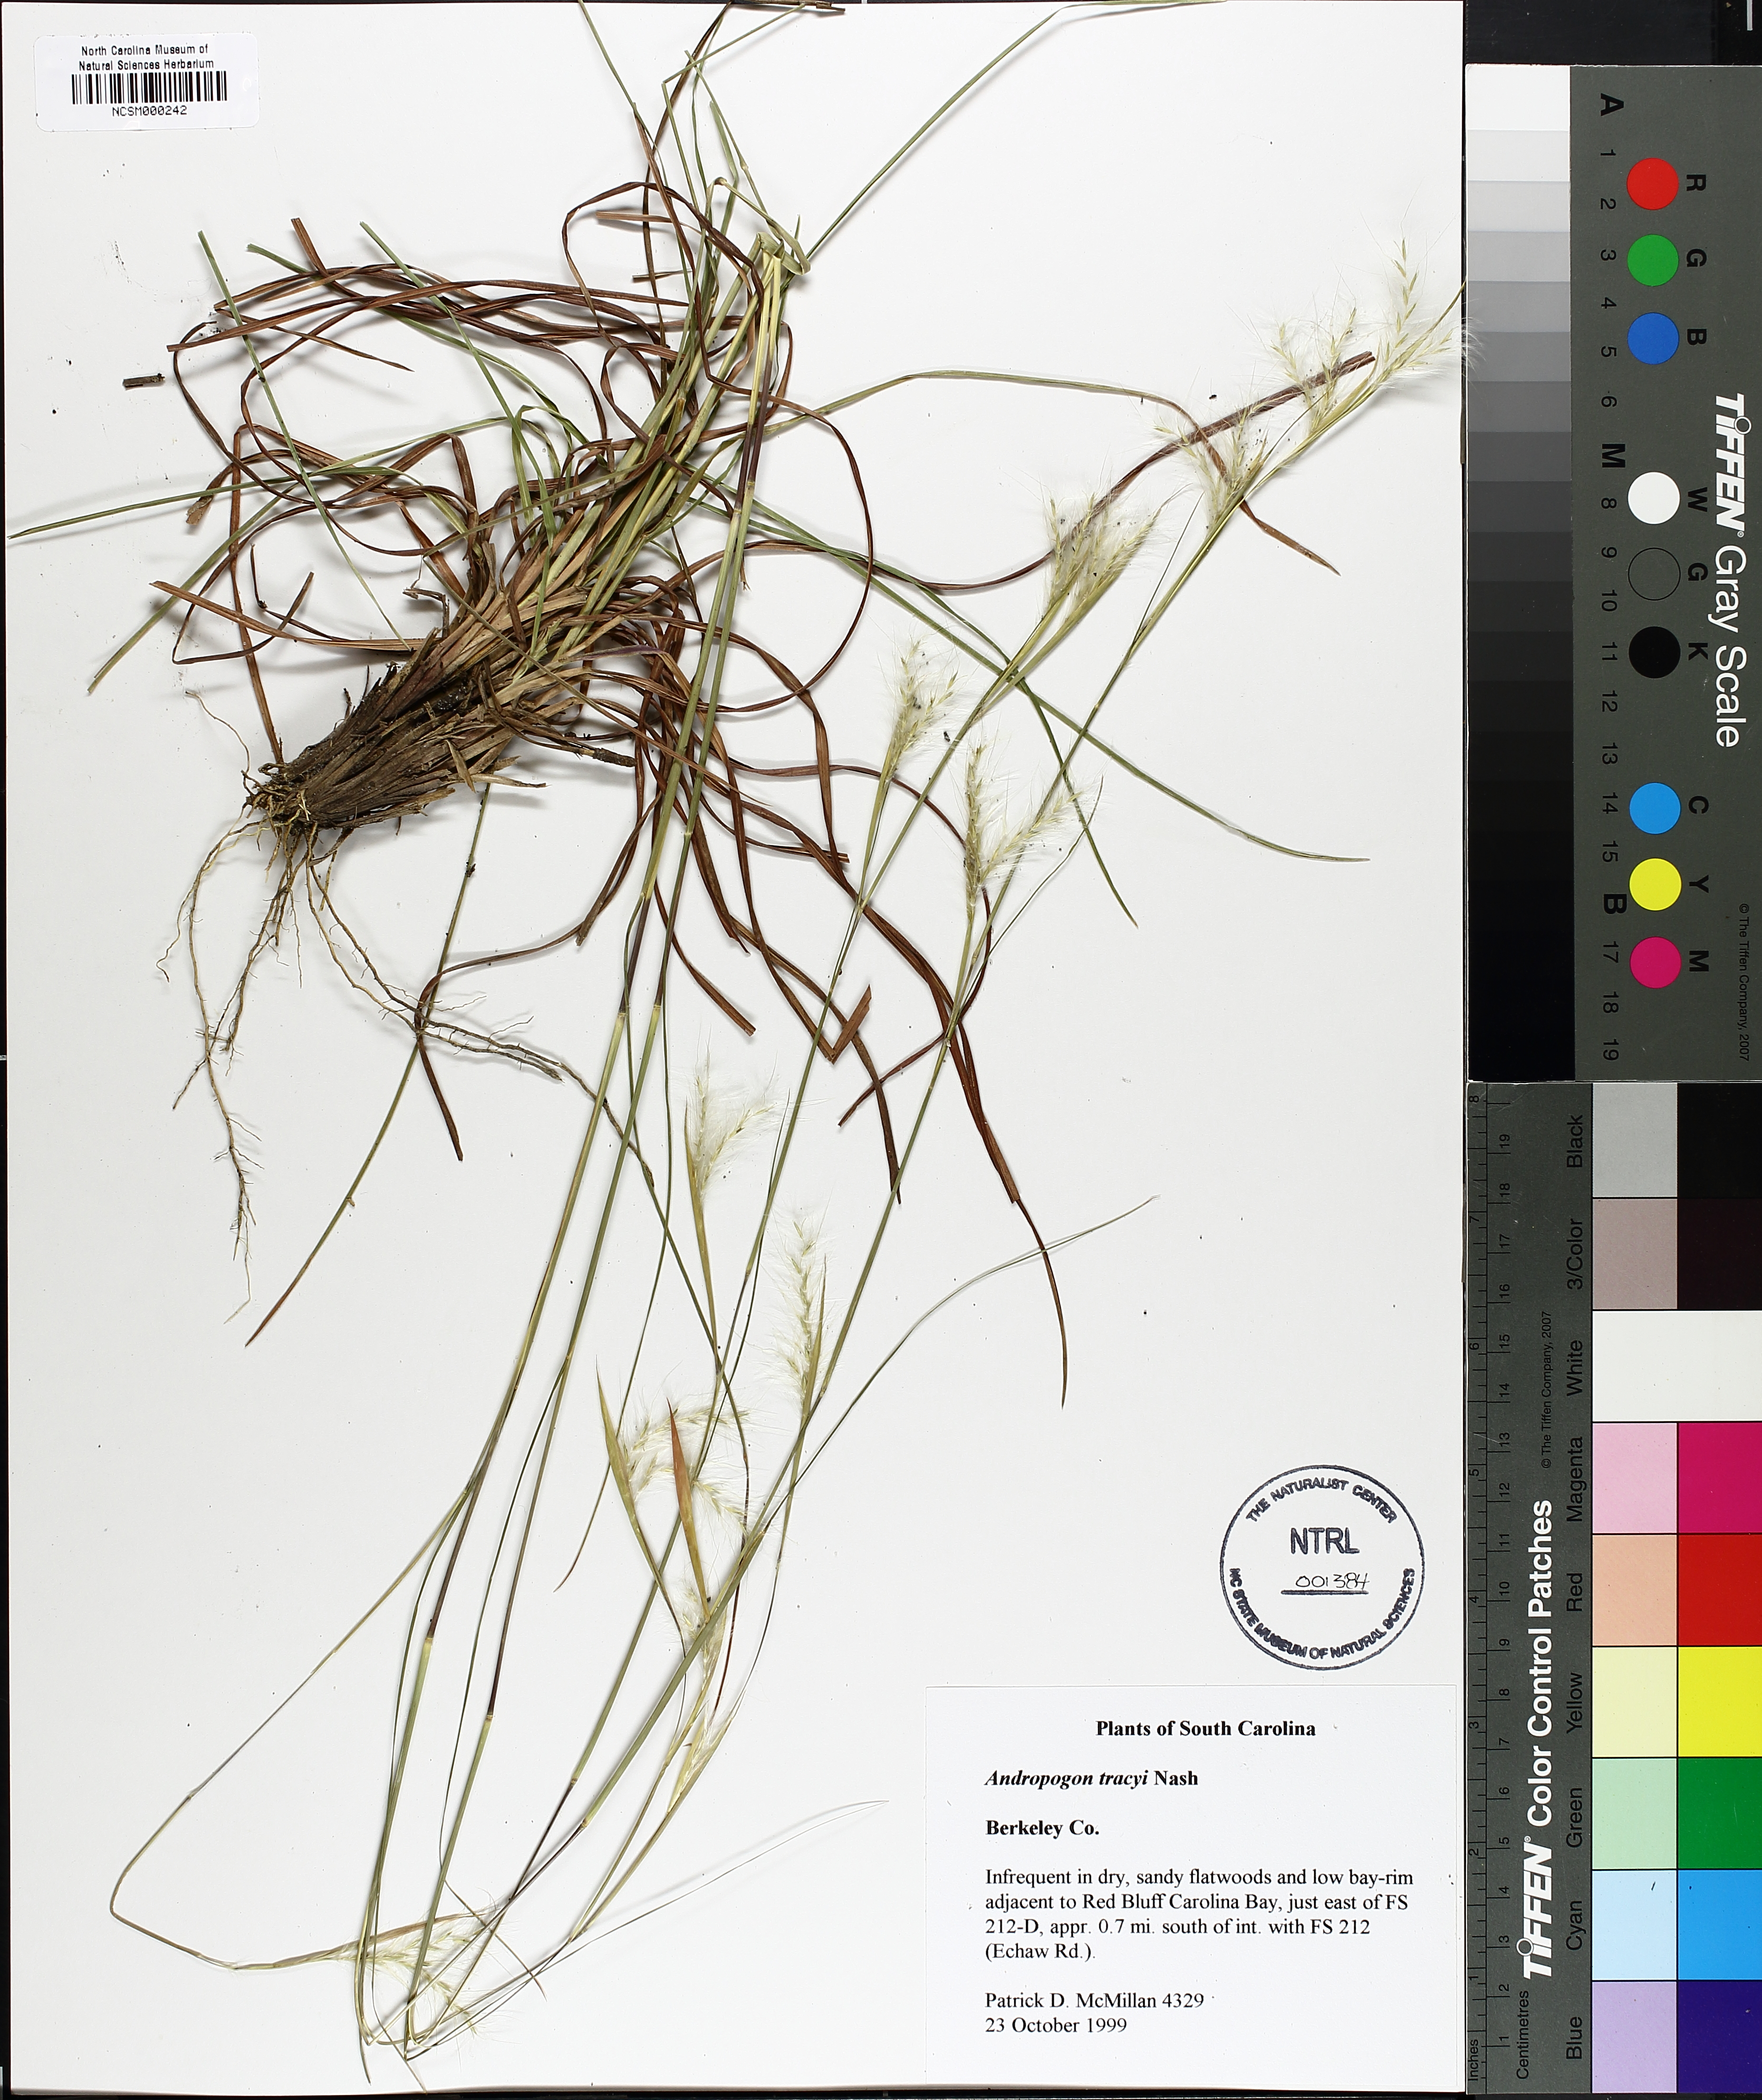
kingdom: Plantae
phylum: Tracheophyta
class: Liliopsida
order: Poales
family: Poaceae
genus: Andropogon
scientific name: Andropogon tracyi
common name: Tracy's bluestem
